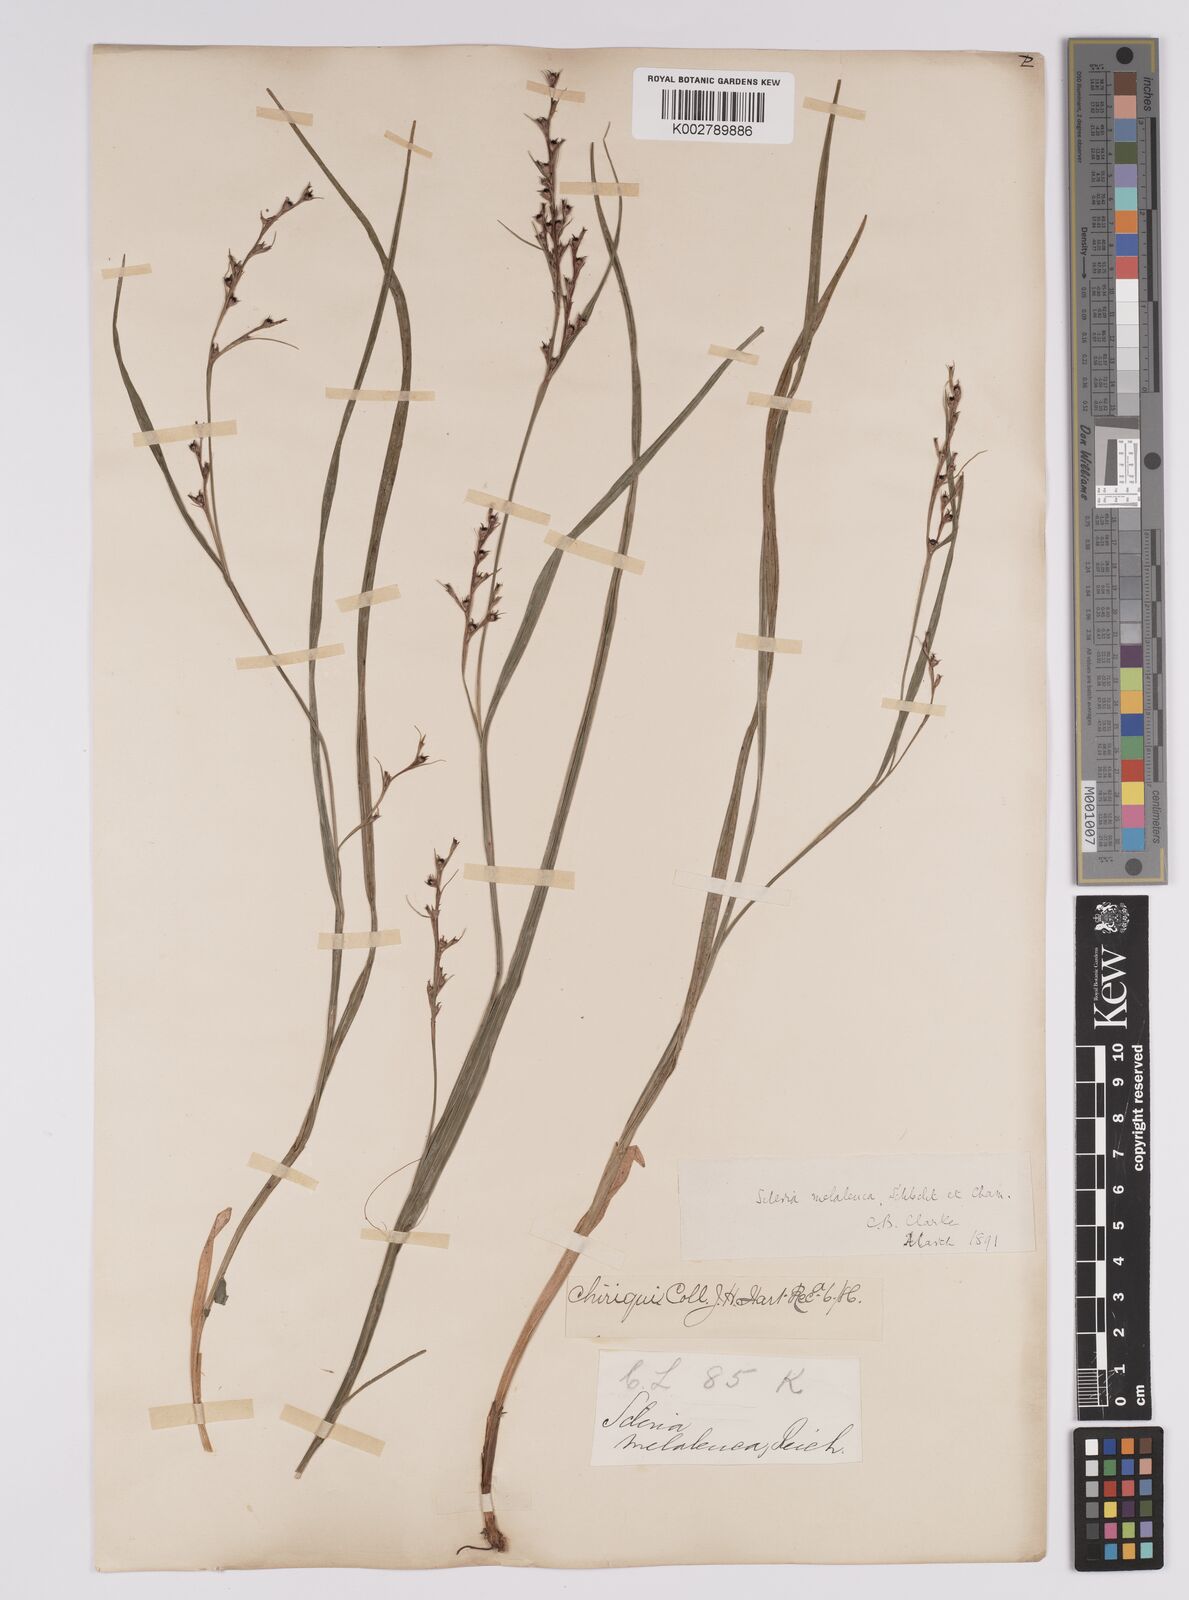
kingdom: Plantae
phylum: Tracheophyta
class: Liliopsida
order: Poales
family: Cyperaceae
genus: Scleria
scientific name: Scleria gaertneri
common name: Cortadera blanca
